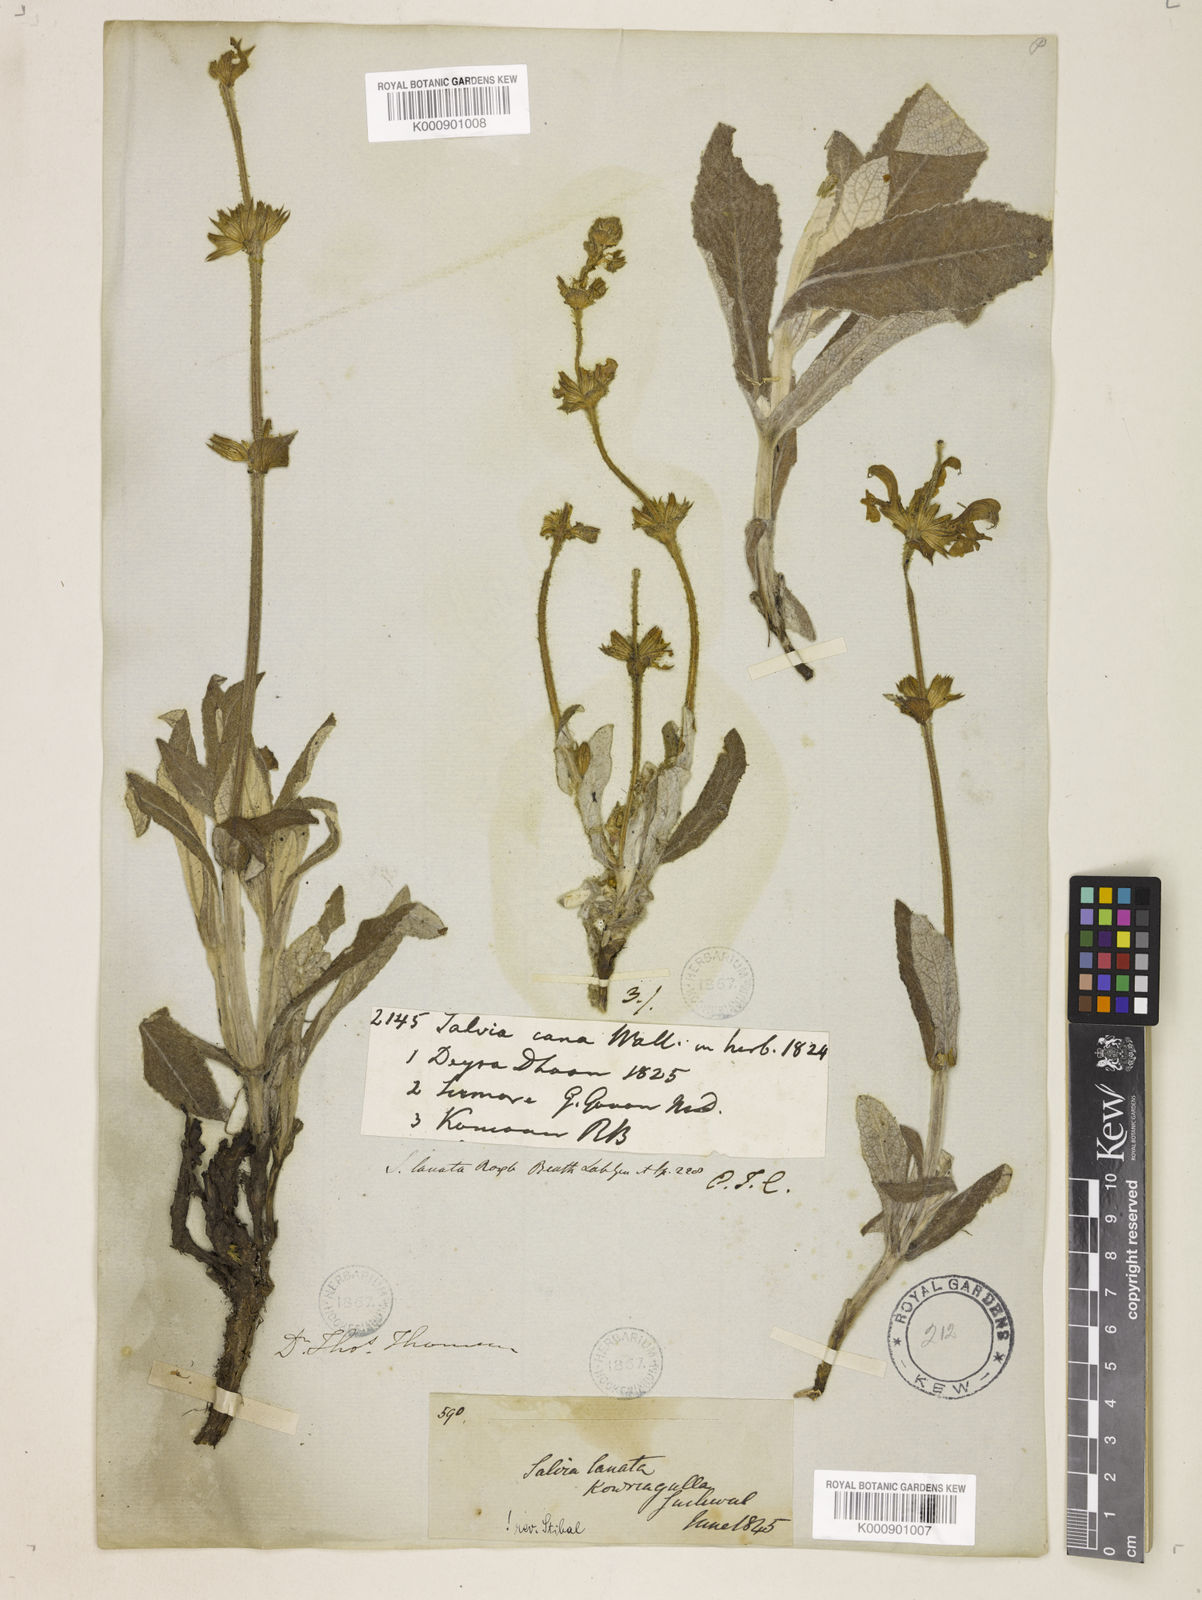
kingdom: Plantae
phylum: Tracheophyta
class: Magnoliopsida
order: Lamiales
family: Lamiaceae
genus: Salvia
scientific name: Salvia
